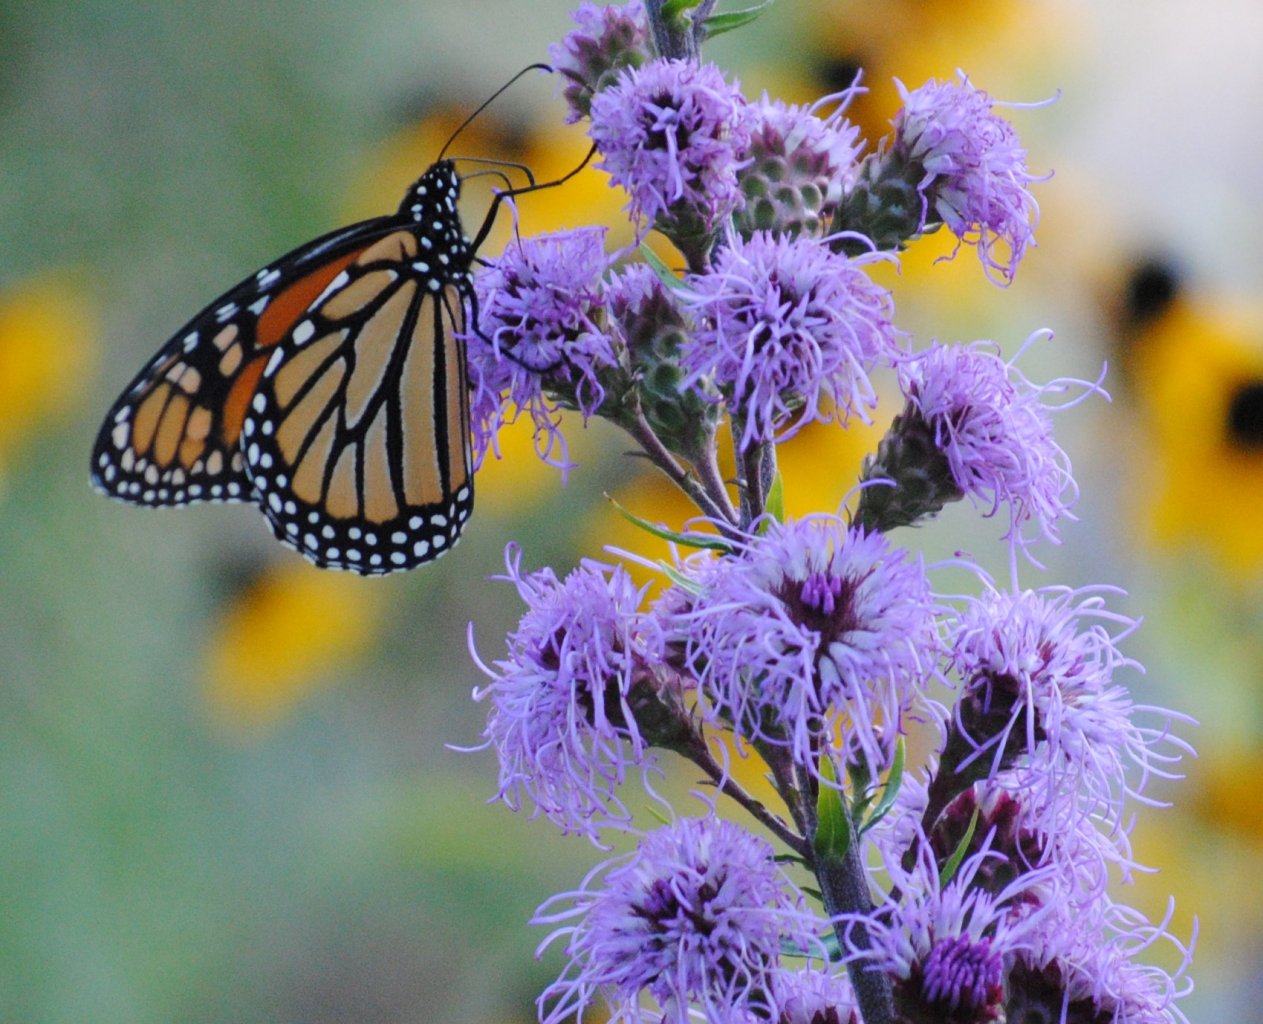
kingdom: Animalia
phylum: Arthropoda
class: Insecta
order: Lepidoptera
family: Nymphalidae
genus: Danaus
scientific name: Danaus plexippus
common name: Monarch
